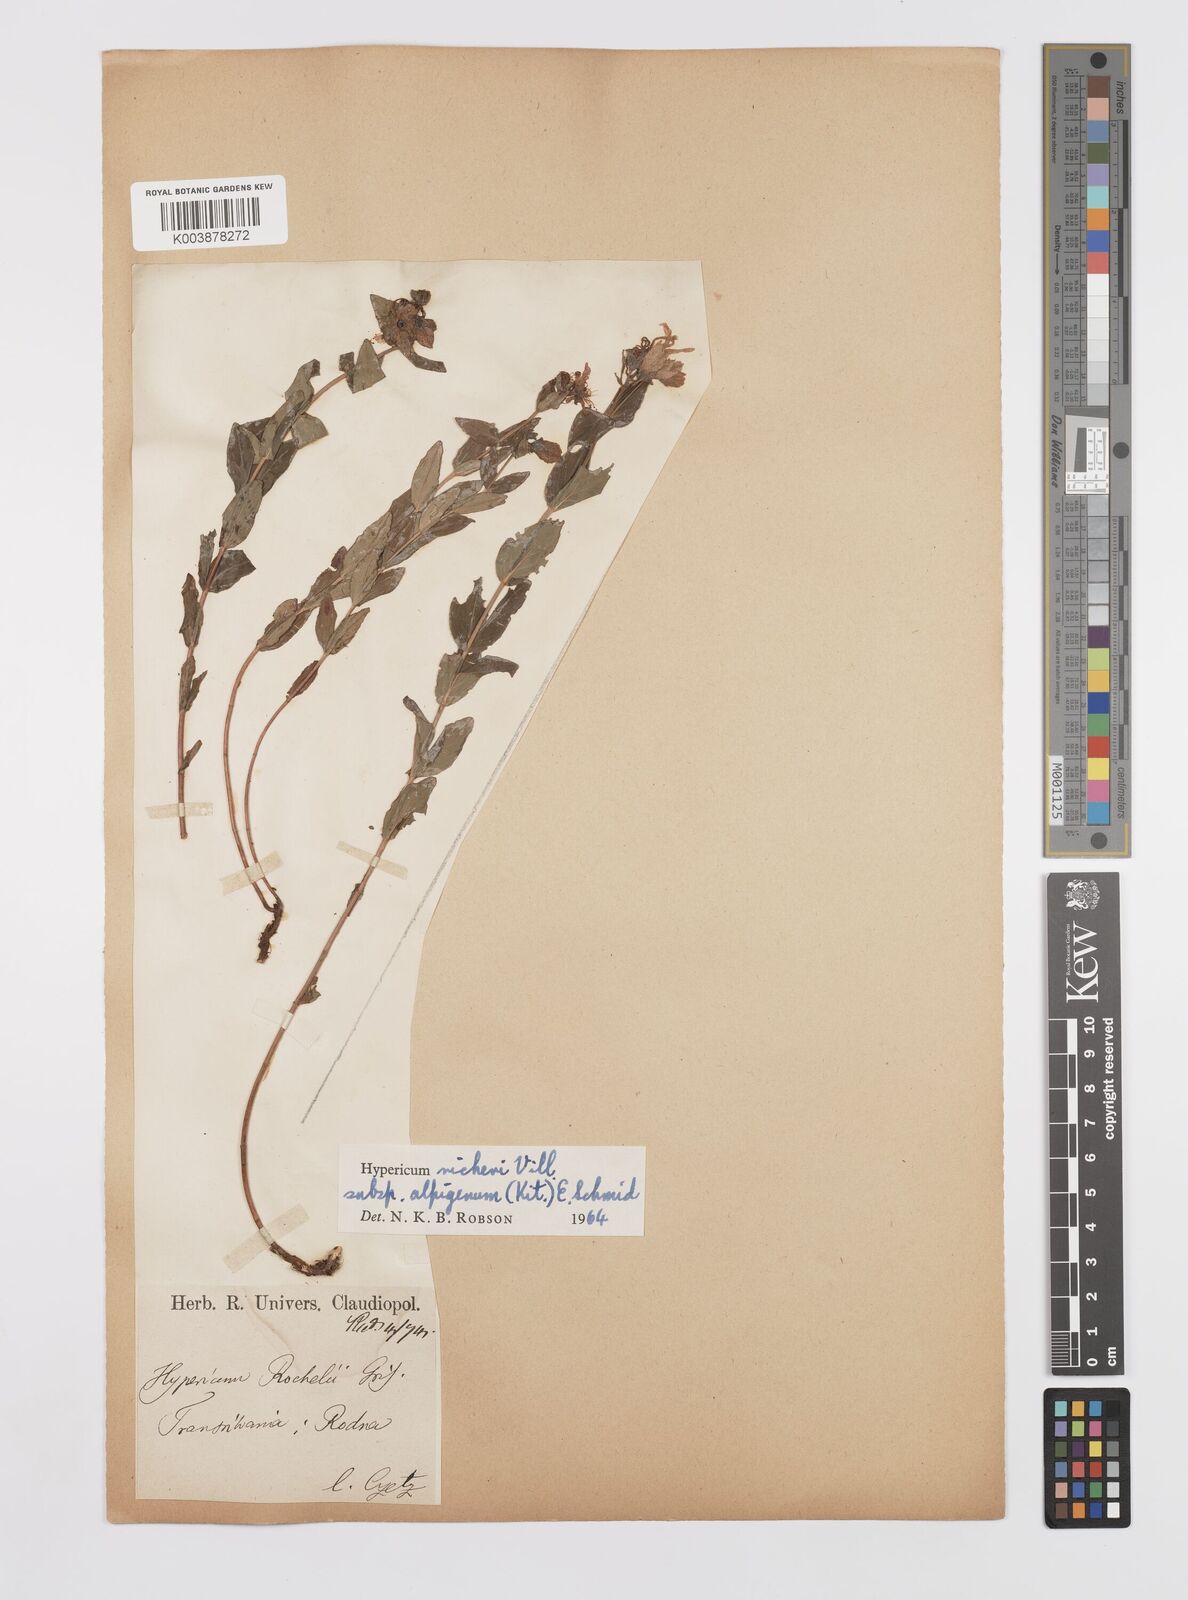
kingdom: Plantae
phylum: Tracheophyta
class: Magnoliopsida
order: Malpighiales
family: Hypericaceae
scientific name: Hypericaceae
